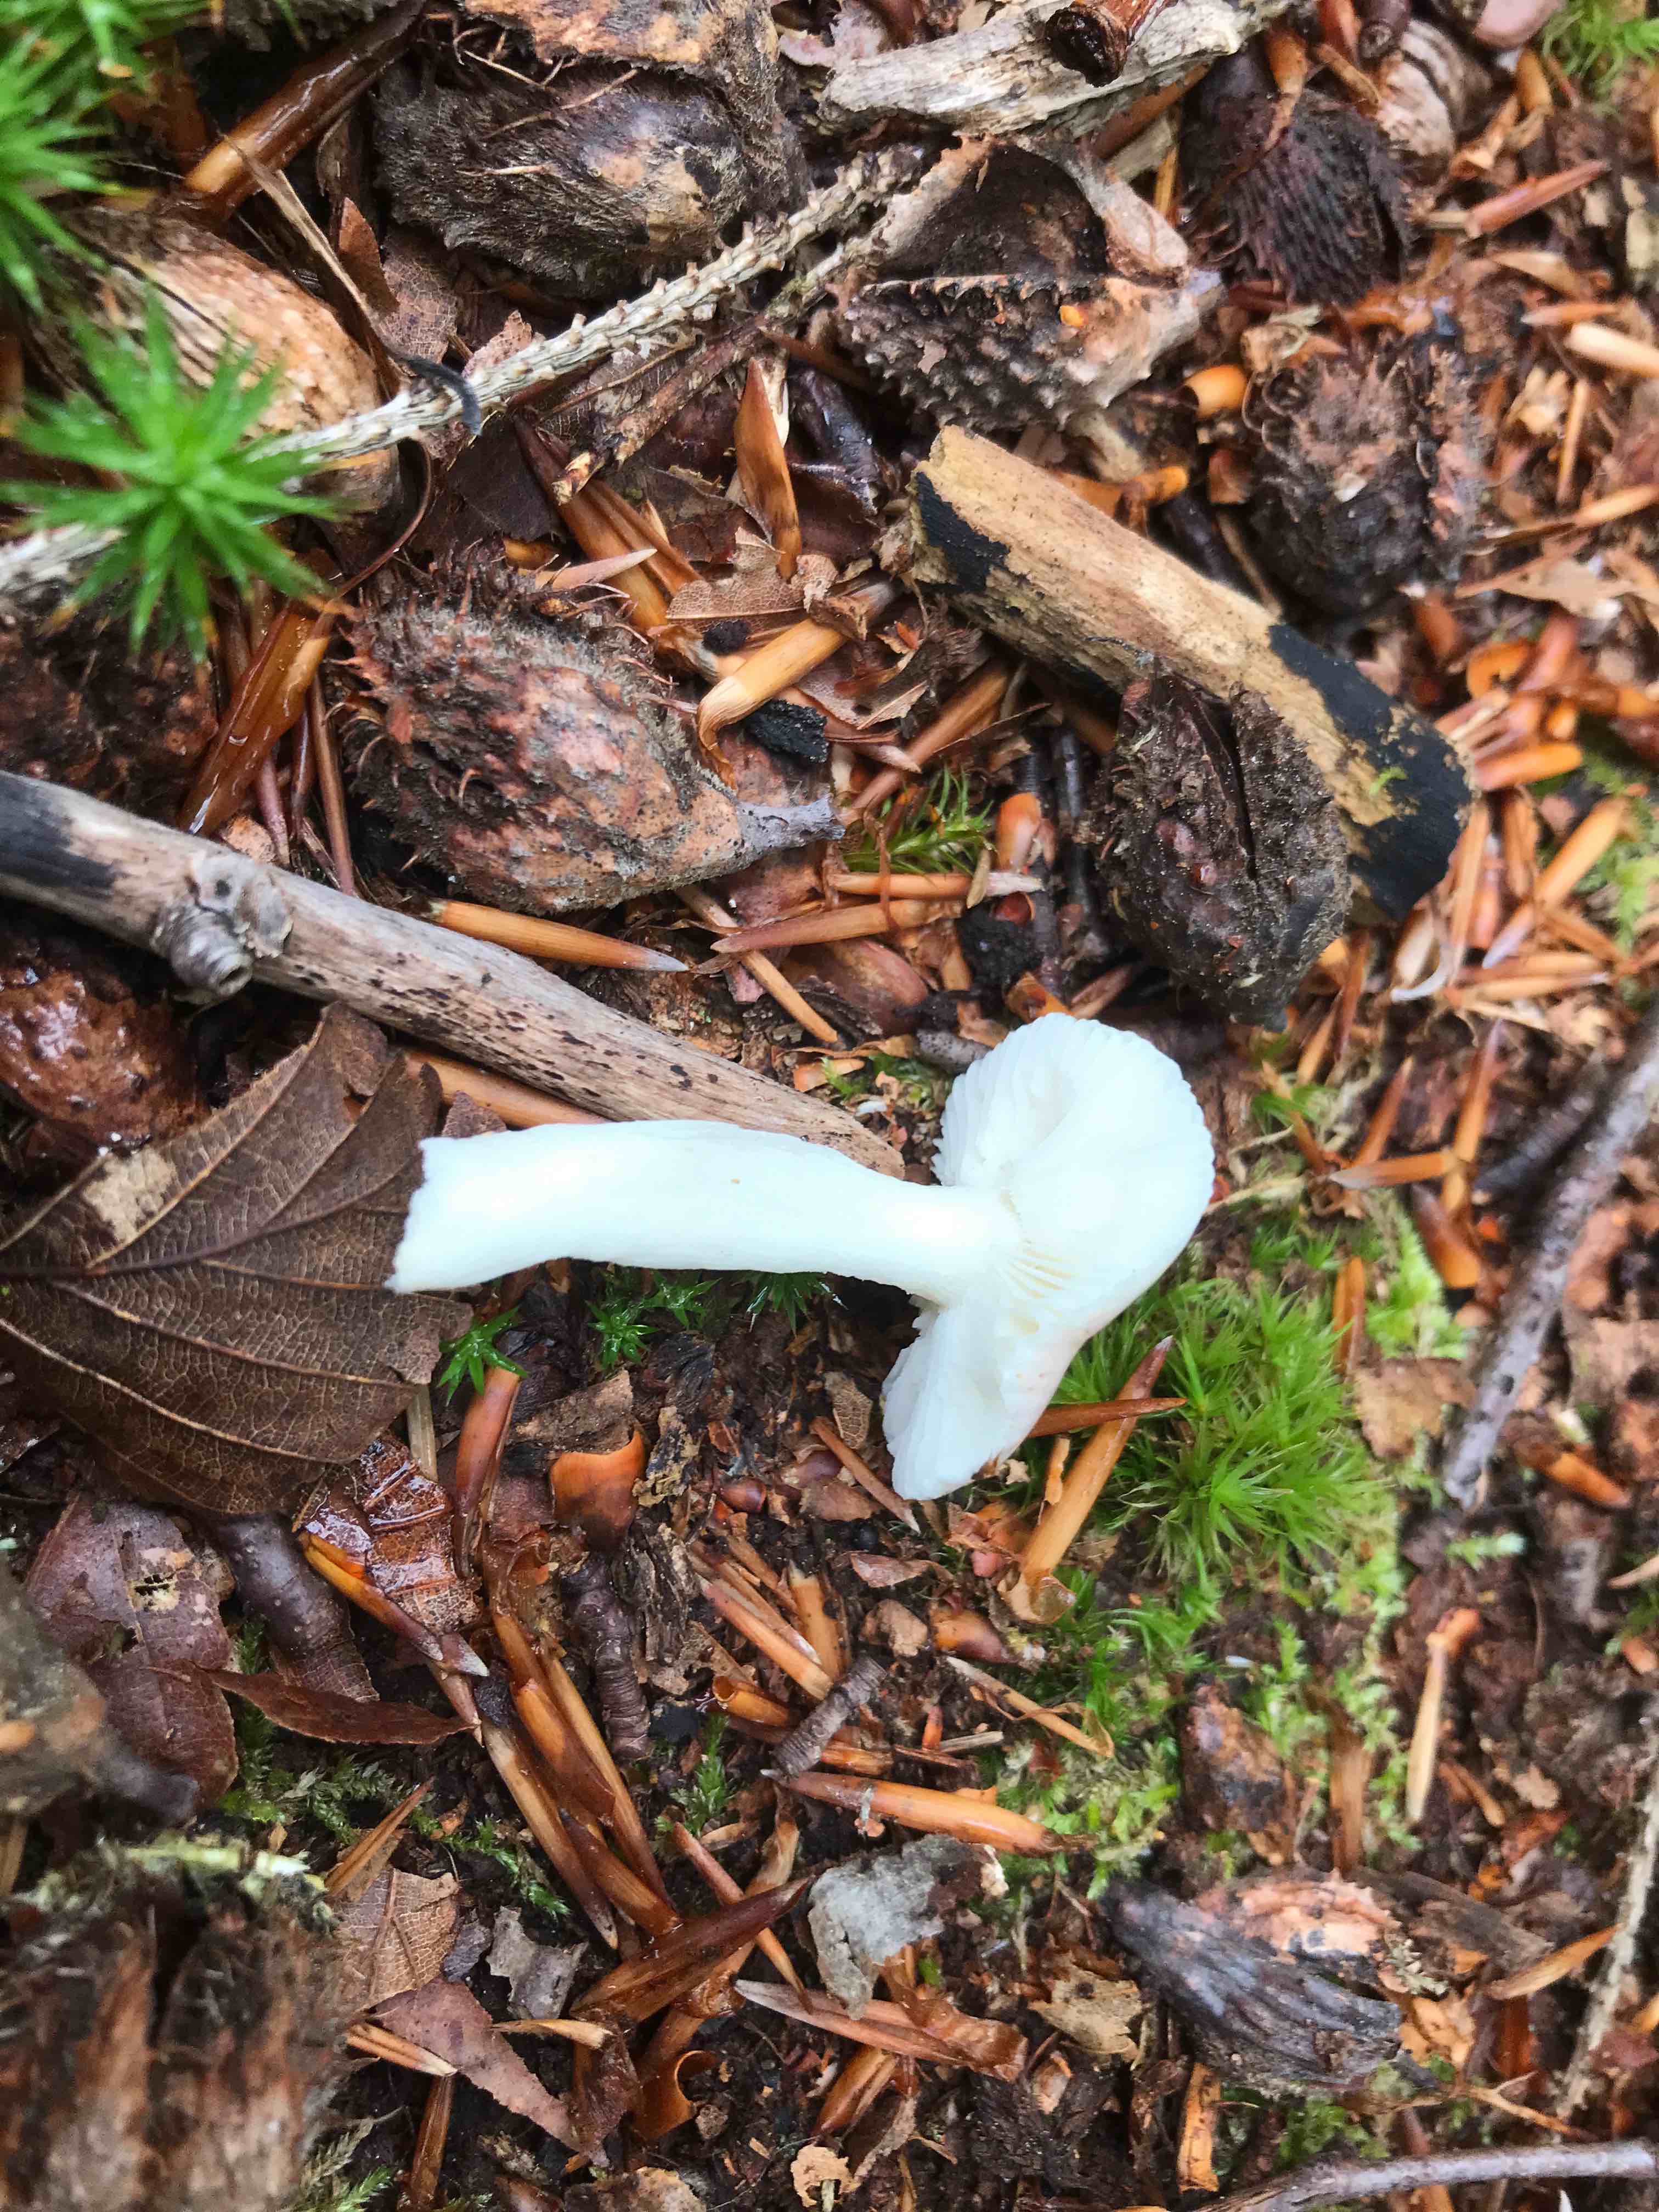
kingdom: Fungi
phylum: Basidiomycota
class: Agaricomycetes
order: Russulales
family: Russulaceae
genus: Russula
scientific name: Russula betularum
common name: bleg gift-skørhat
